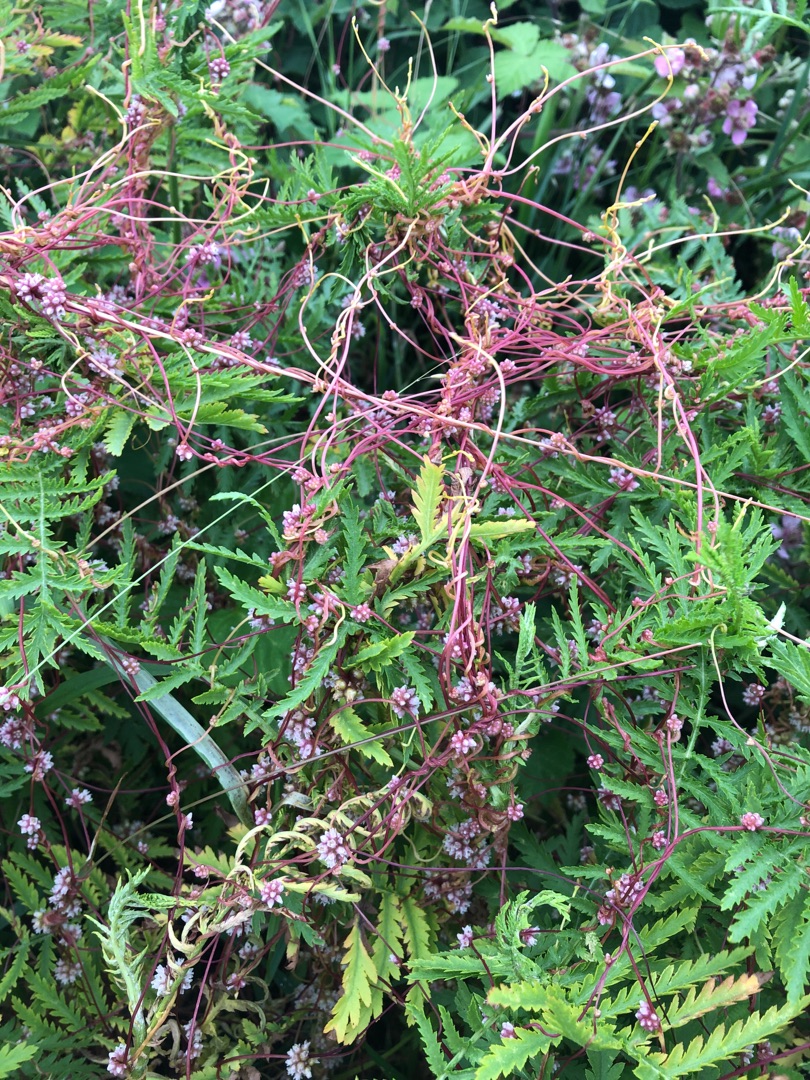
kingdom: Plantae
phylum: Tracheophyta
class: Magnoliopsida
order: Solanales
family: Convolvulaceae
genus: Cuscuta
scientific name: Cuscuta europaea
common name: Nælde-silke
